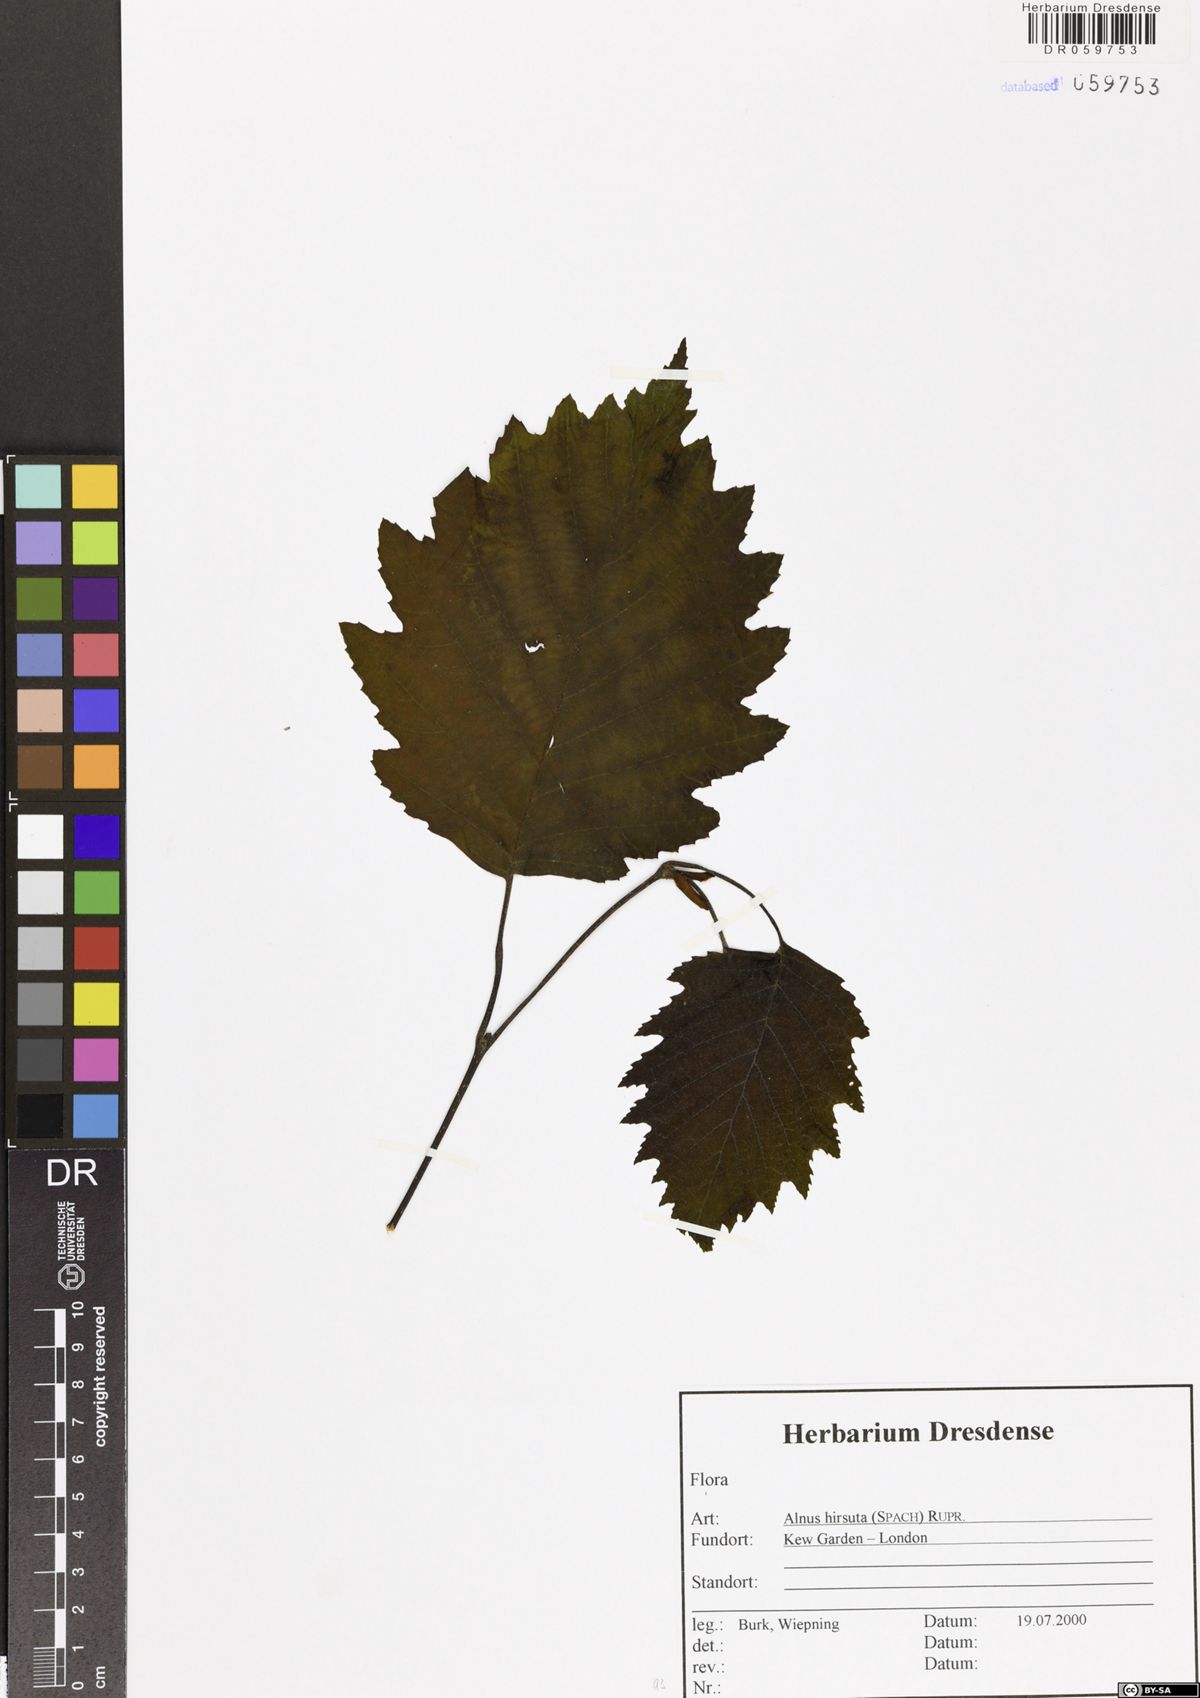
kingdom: Plantae
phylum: Tracheophyta
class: Magnoliopsida
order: Fagales
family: Betulaceae
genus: Alnus
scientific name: Alnus hirsuta
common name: Manchurian alder
